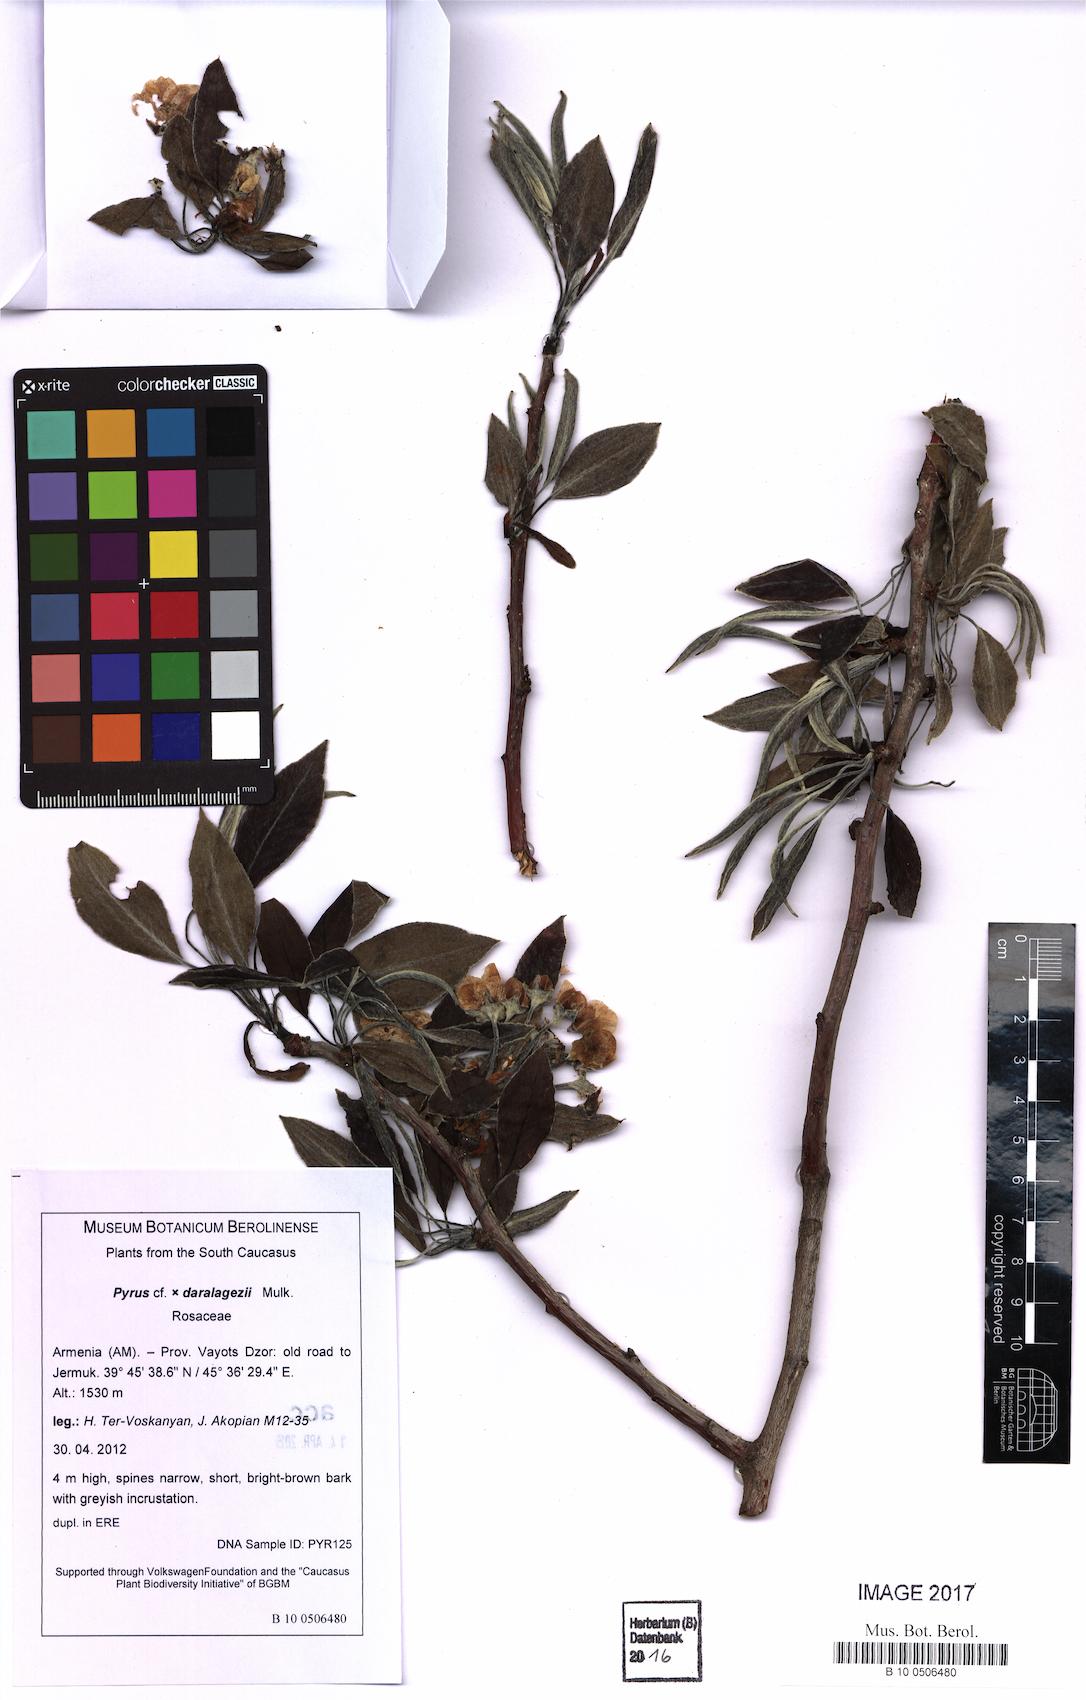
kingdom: Plantae
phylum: Tracheophyta
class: Magnoliopsida
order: Rosales
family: Rosaceae
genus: Pyrus
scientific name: Pyrus daralagezi
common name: Daralagezian pear
